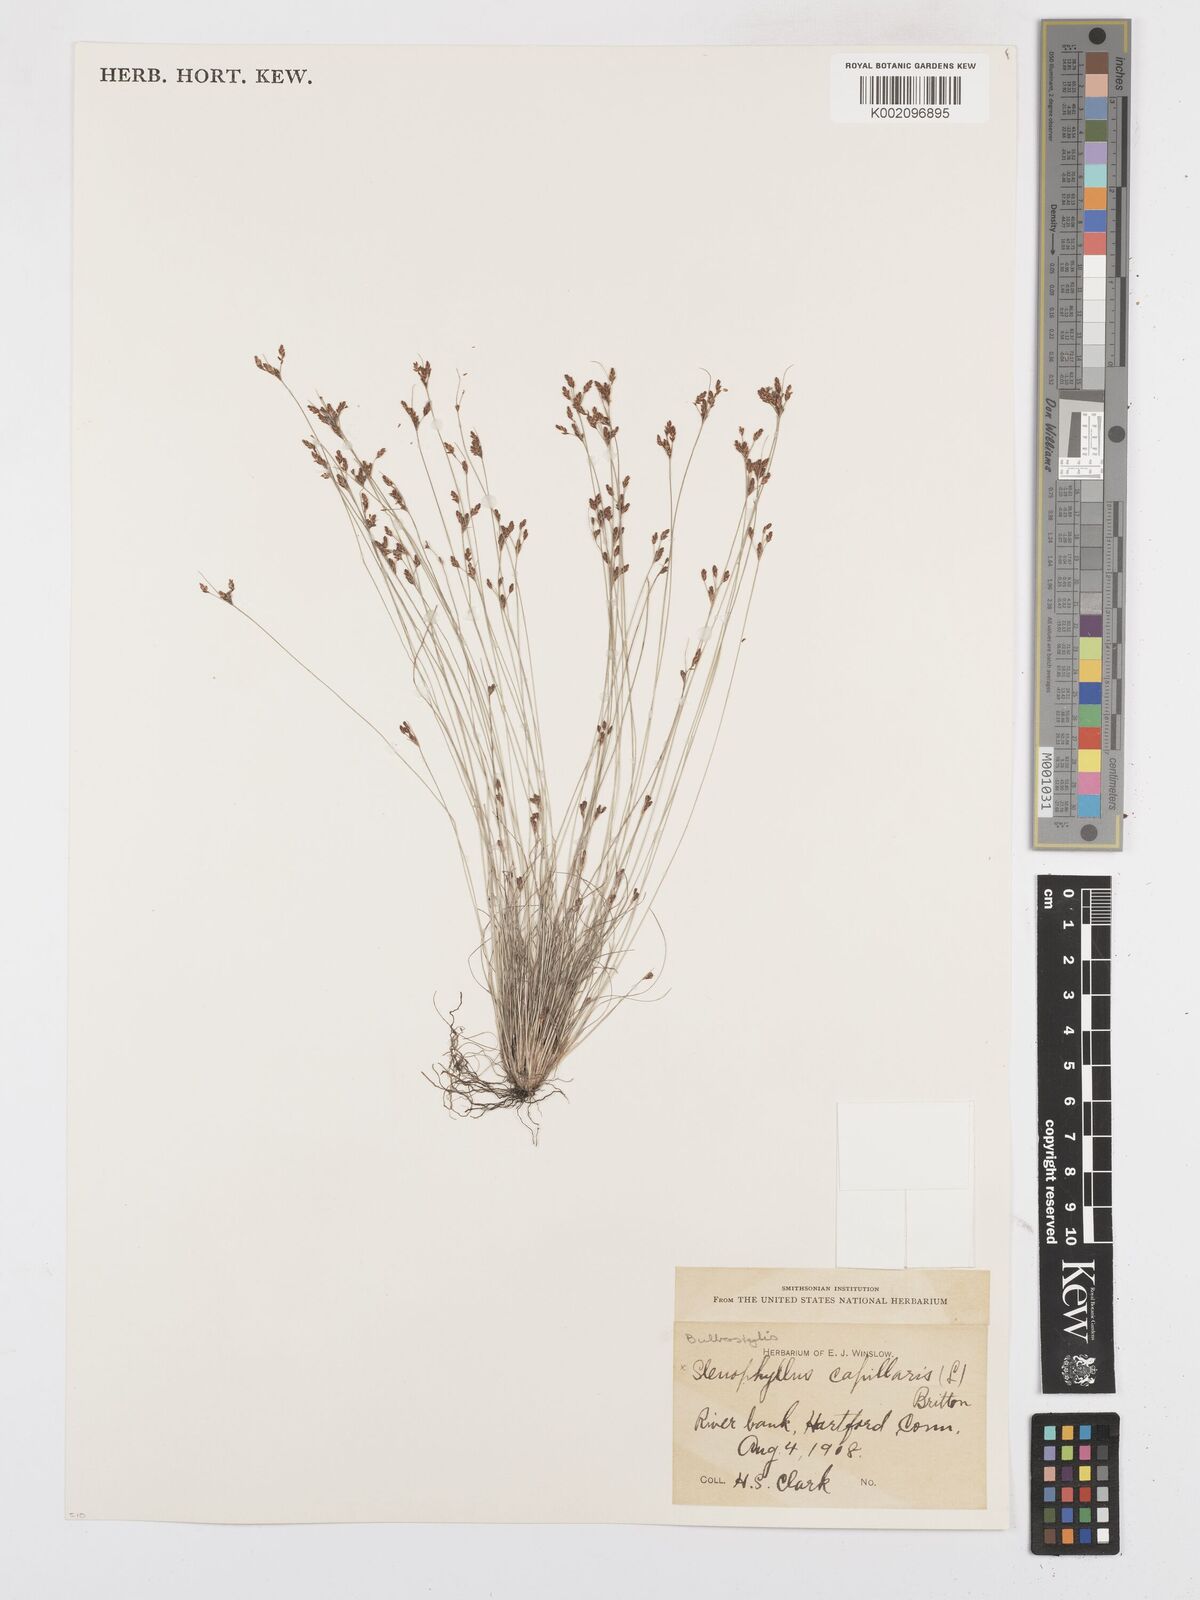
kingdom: Plantae
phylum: Tracheophyta
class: Liliopsida
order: Poales
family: Cyperaceae
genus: Bulbostylis
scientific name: Bulbostylis capillaris
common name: Densetuft hairsedge
